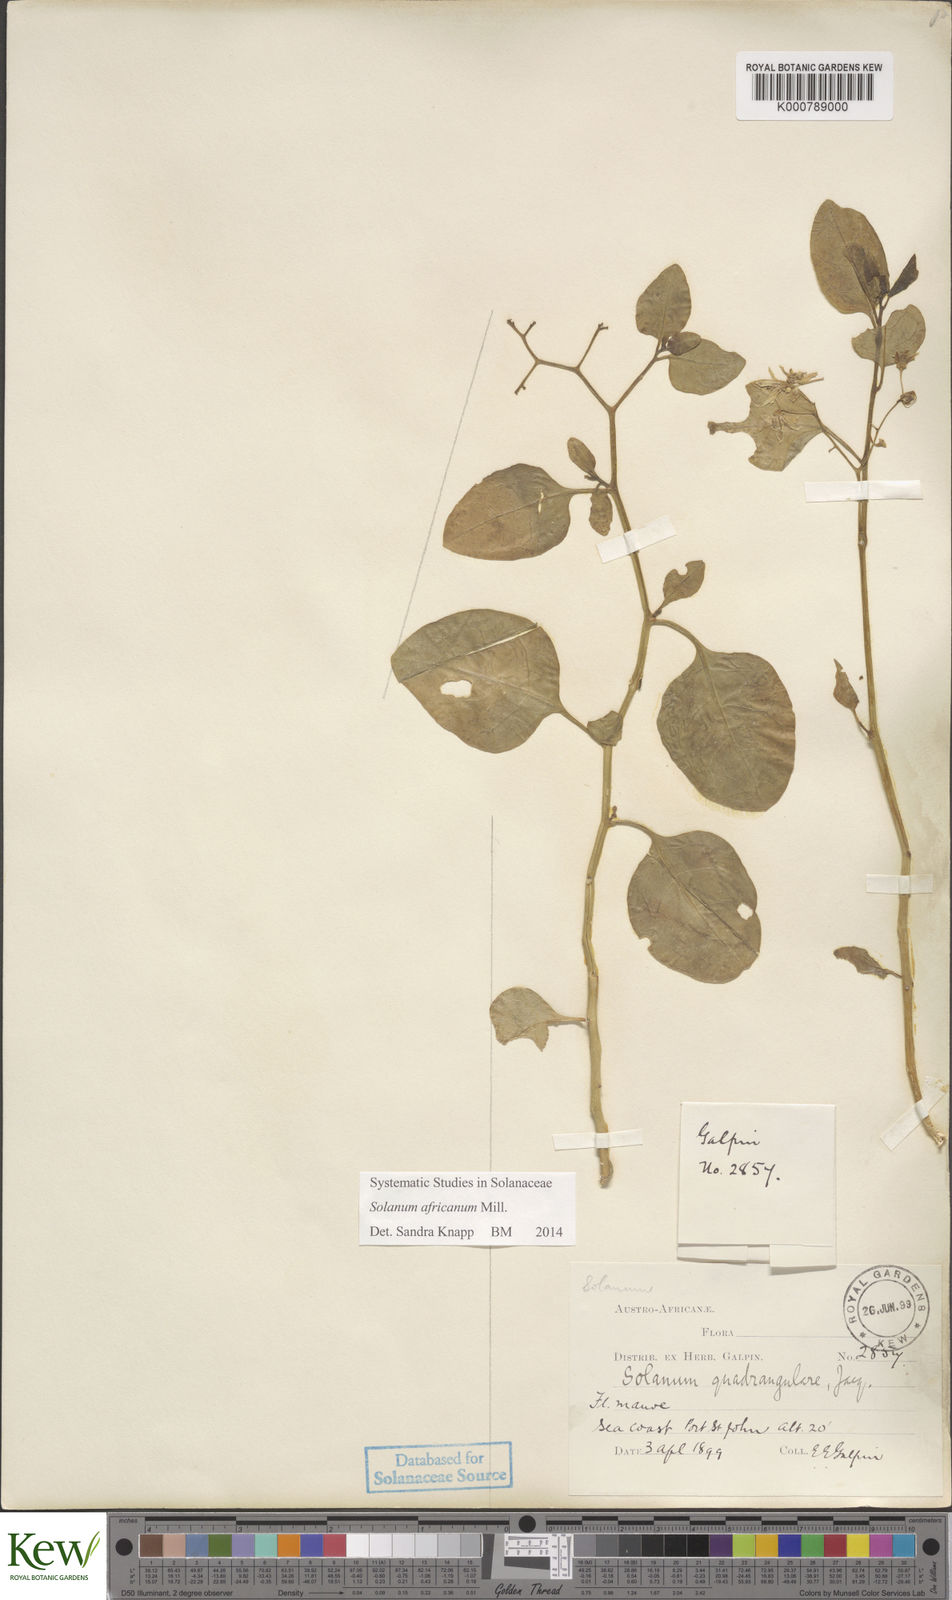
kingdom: Plantae
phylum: Tracheophyta
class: Magnoliopsida
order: Solanales
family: Solanaceae
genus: Solanum
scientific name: Solanum africanum
